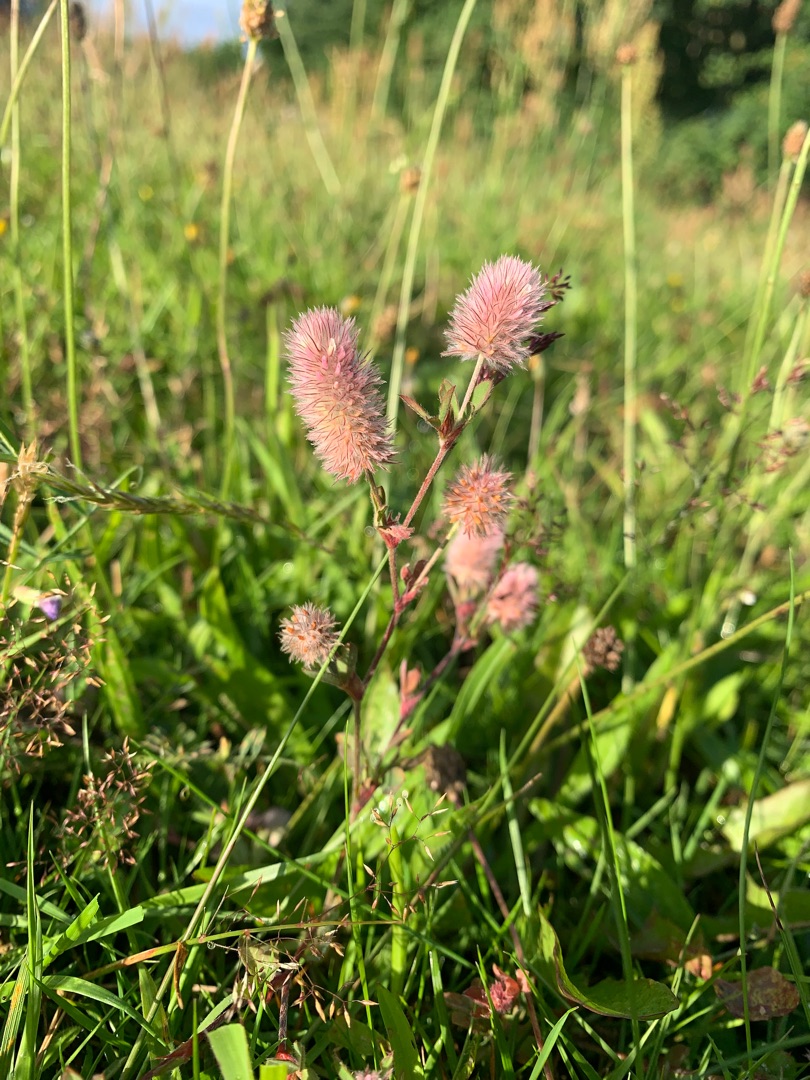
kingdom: Plantae
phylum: Tracheophyta
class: Magnoliopsida
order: Fabales
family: Fabaceae
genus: Trifolium
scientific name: Trifolium arvense
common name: Hare-kløver
